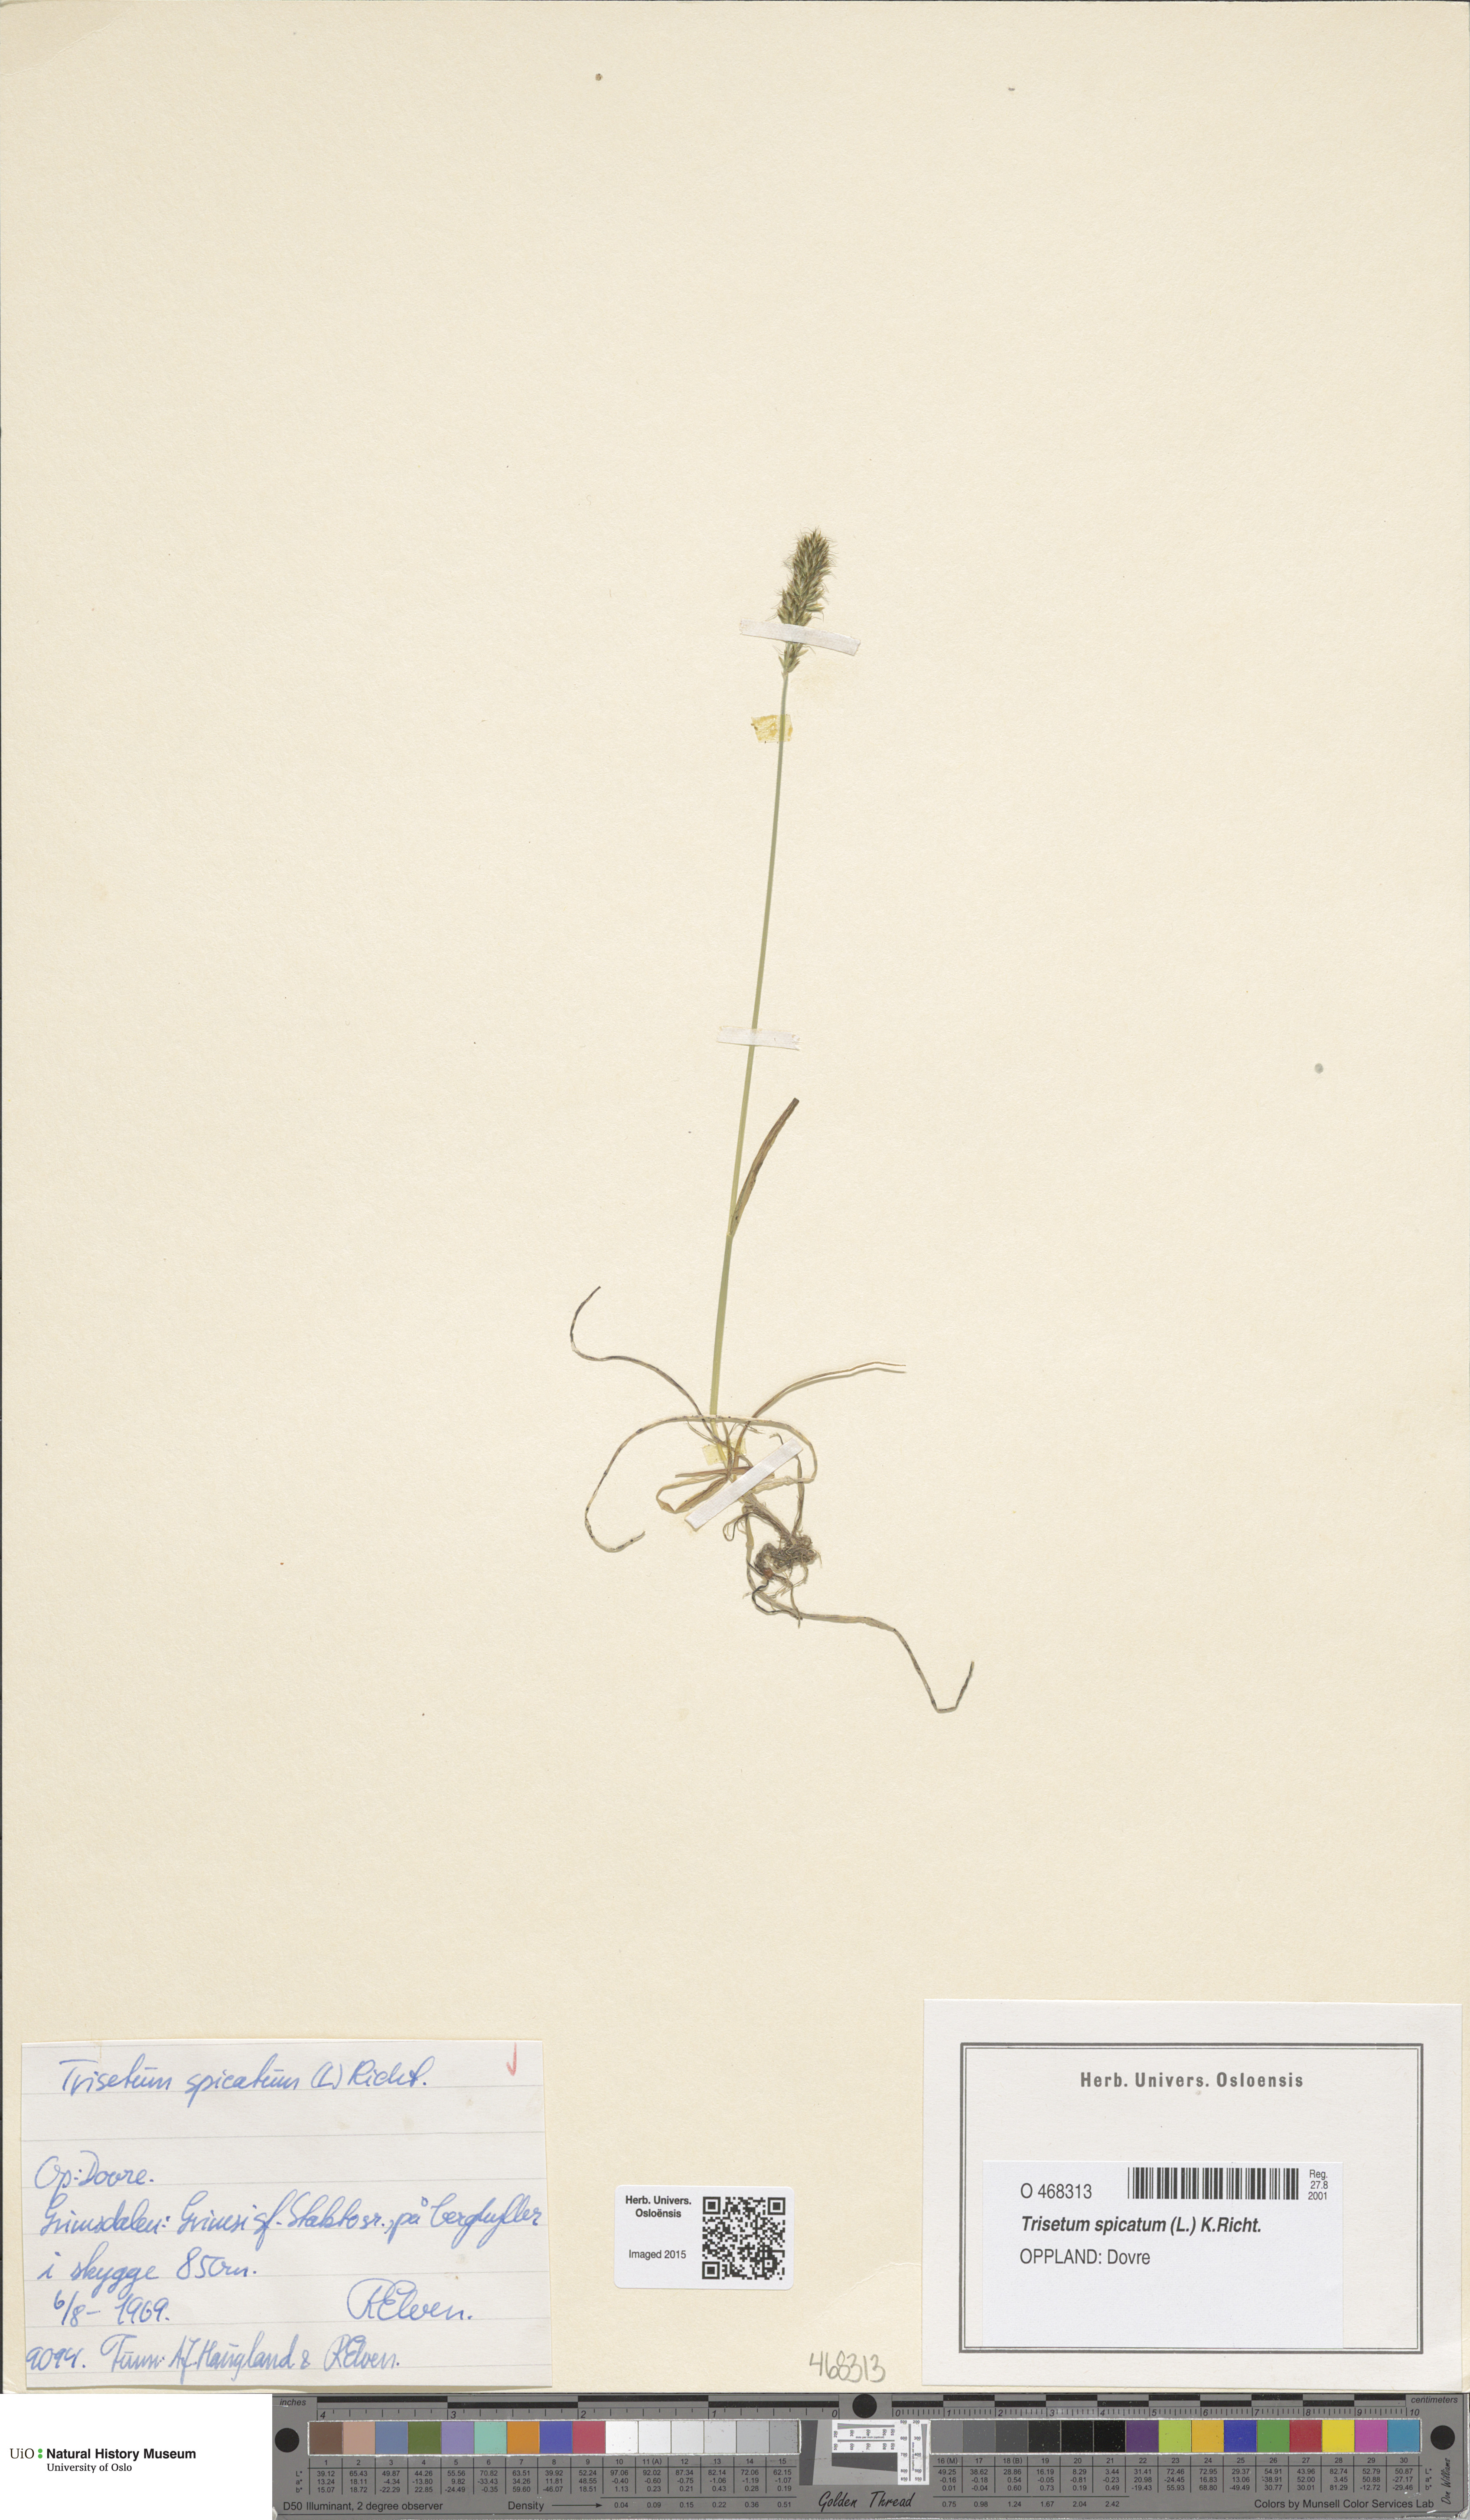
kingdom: Plantae
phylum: Tracheophyta
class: Liliopsida
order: Poales
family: Poaceae
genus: Koeleria
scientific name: Koeleria spicata
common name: Mountain trisetum
